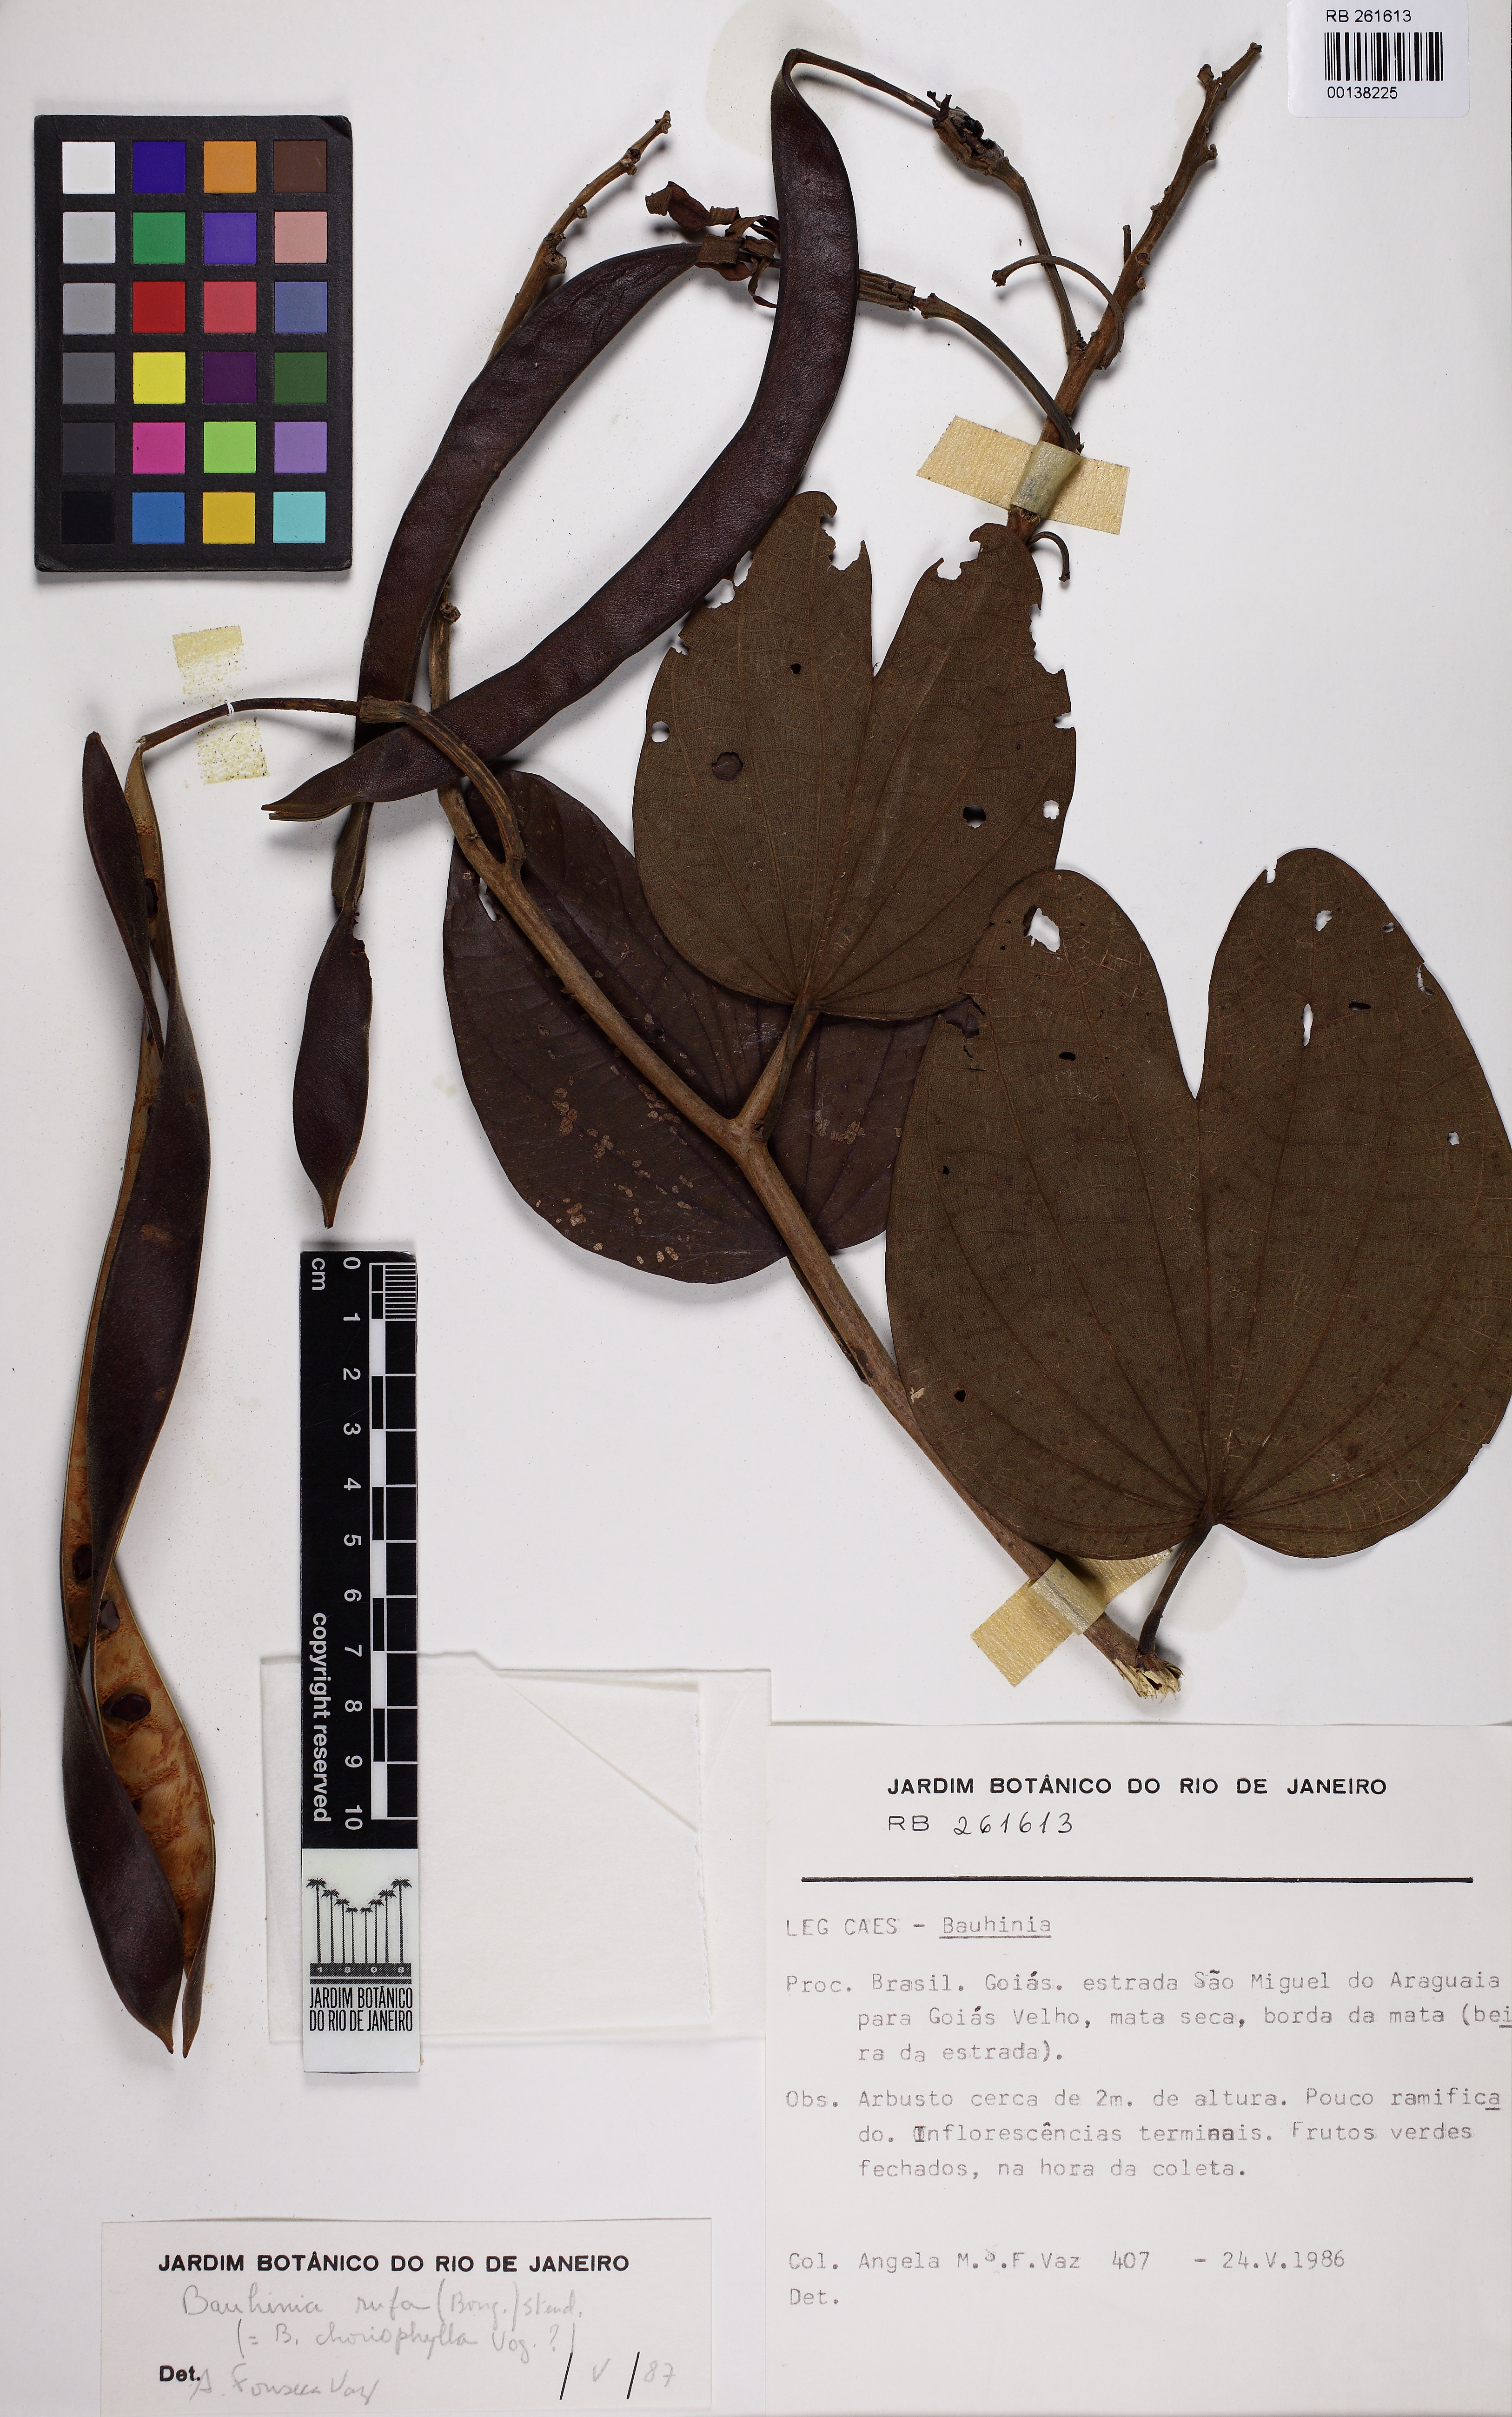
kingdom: Plantae
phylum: Tracheophyta
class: Magnoliopsida
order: Fabales
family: Fabaceae
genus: Bauhinia
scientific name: Bauhinia rufa
